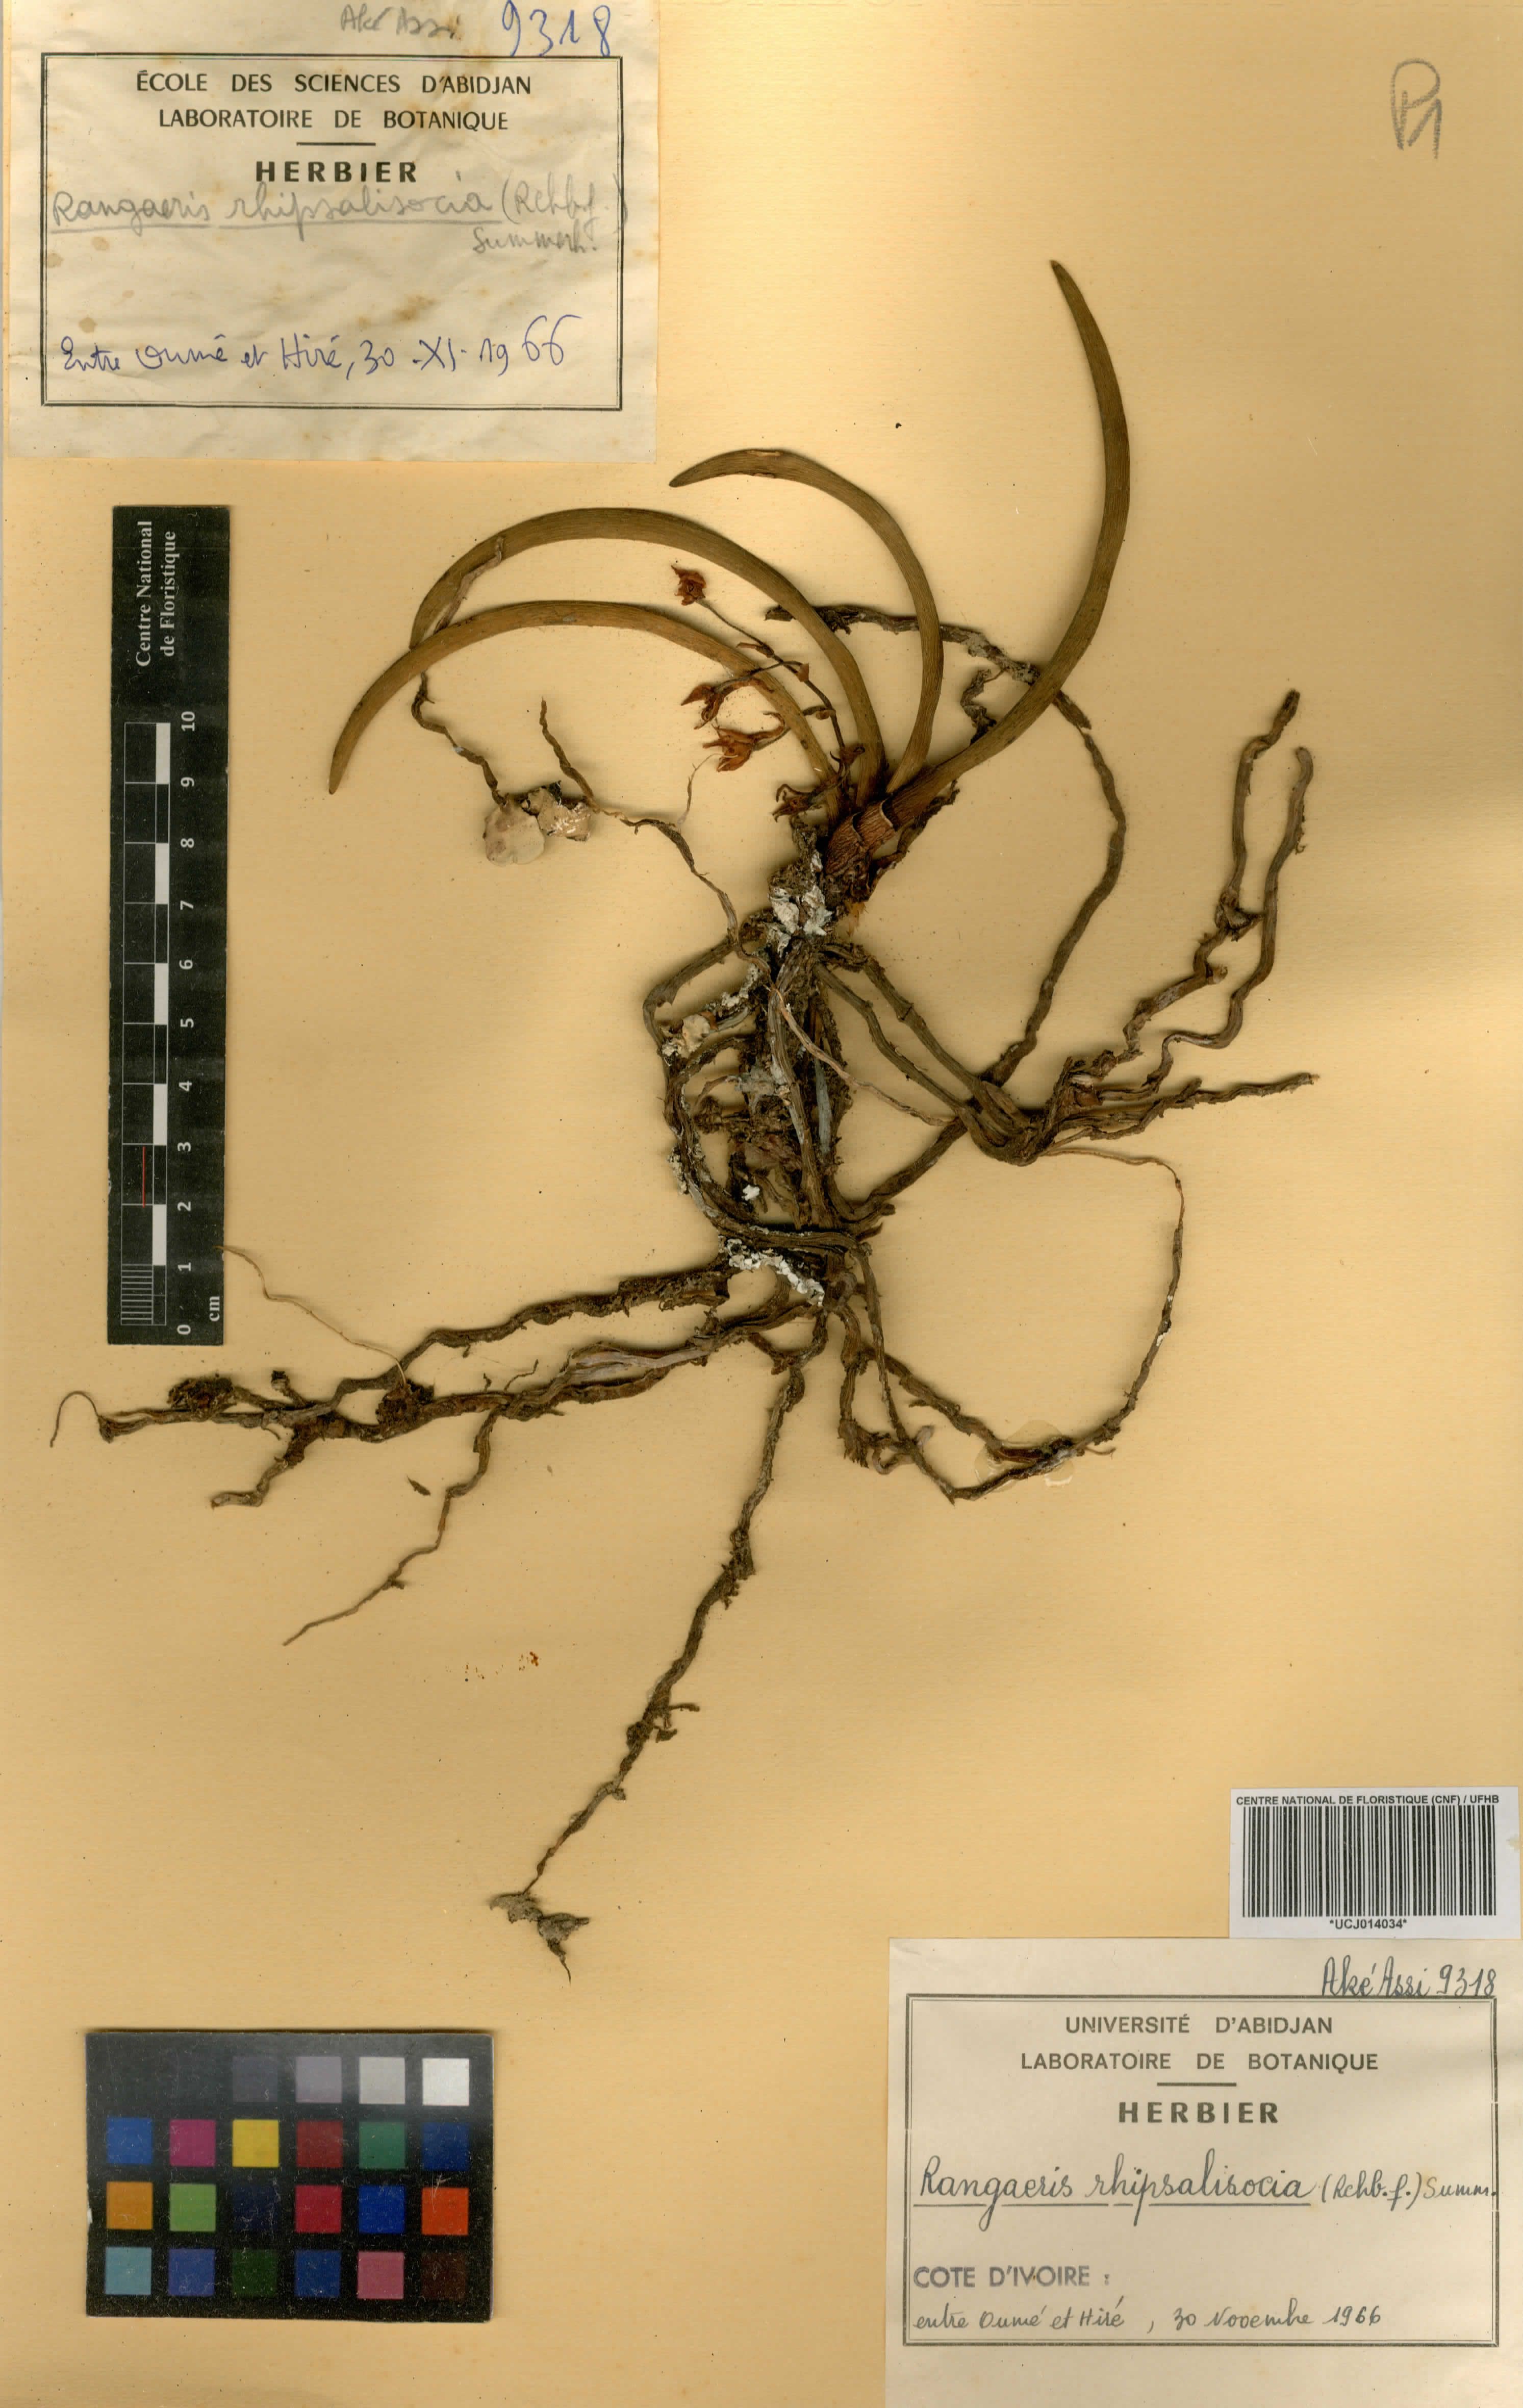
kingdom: Plantae
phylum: Tracheophyta
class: Liliopsida
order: Asparagales
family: Orchidaceae
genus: Podangis
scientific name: Podangis rhipsalisocia
